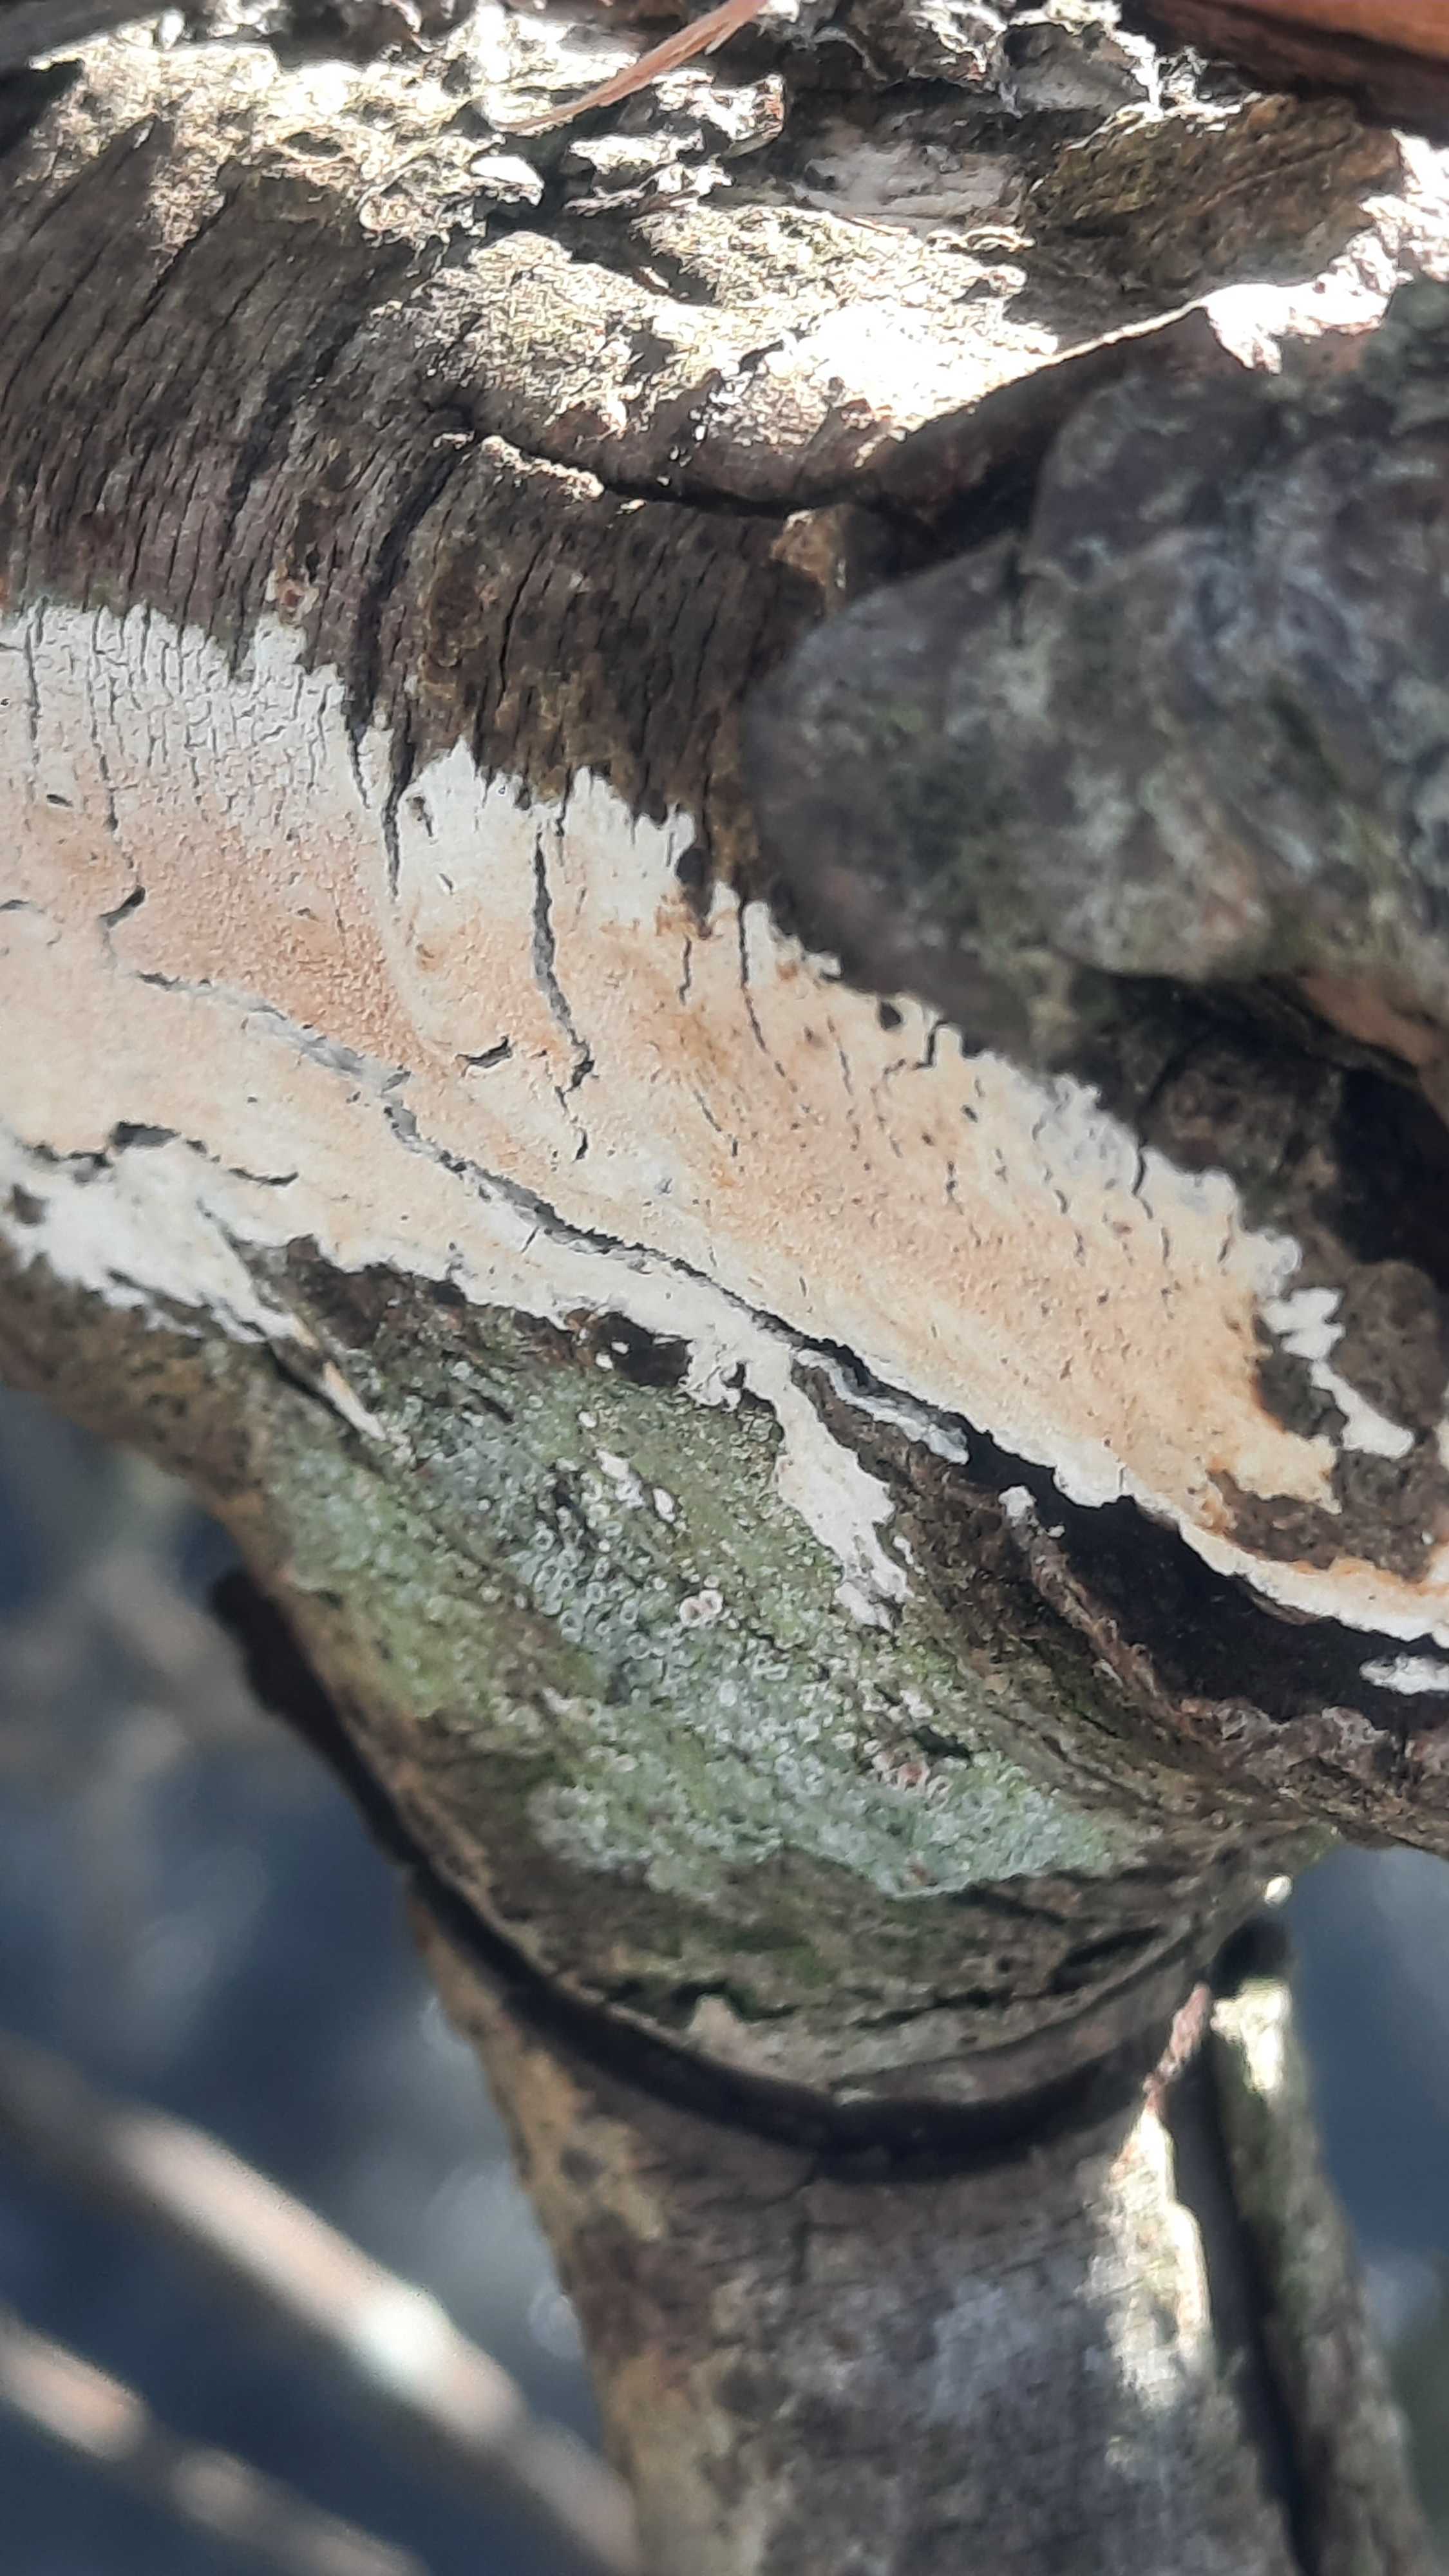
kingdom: Fungi
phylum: Basidiomycota
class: Agaricomycetes
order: Agaricales
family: Physalacriaceae
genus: Cylindrobasidium
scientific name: Cylindrobasidium evolvens
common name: sprækkehinde
